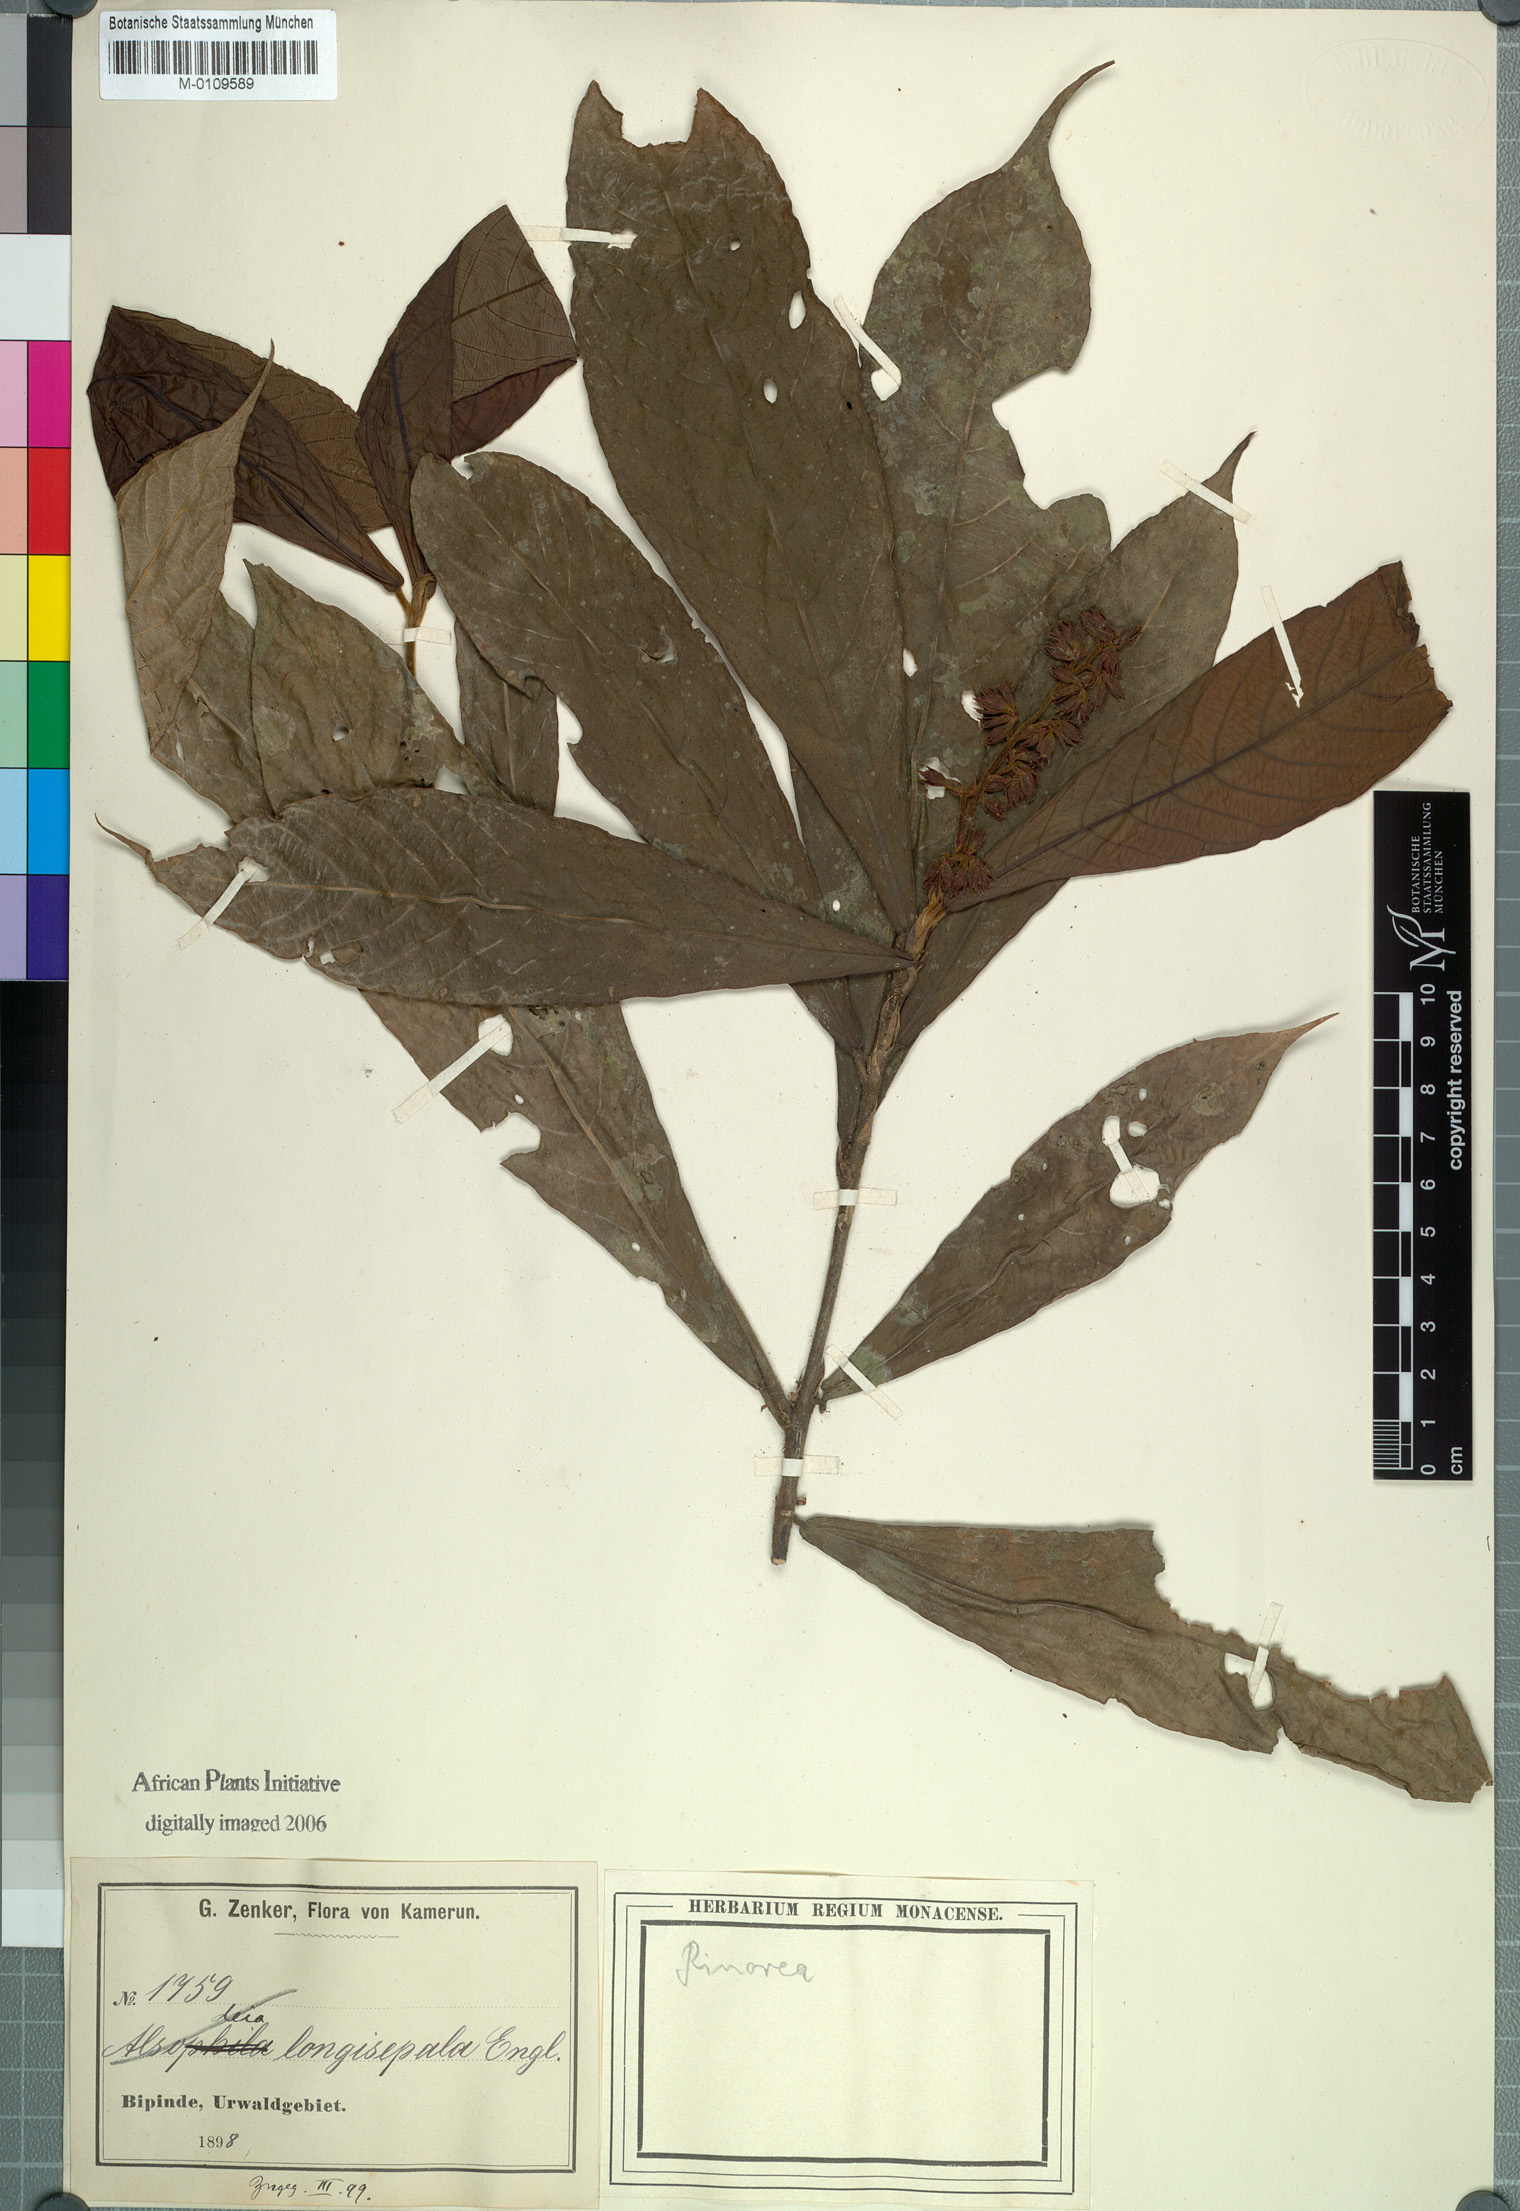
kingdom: Plantae
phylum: Tracheophyta
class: Magnoliopsida
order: Malpighiales
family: Violaceae
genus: Rinorea
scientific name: Rinorea longisepala
